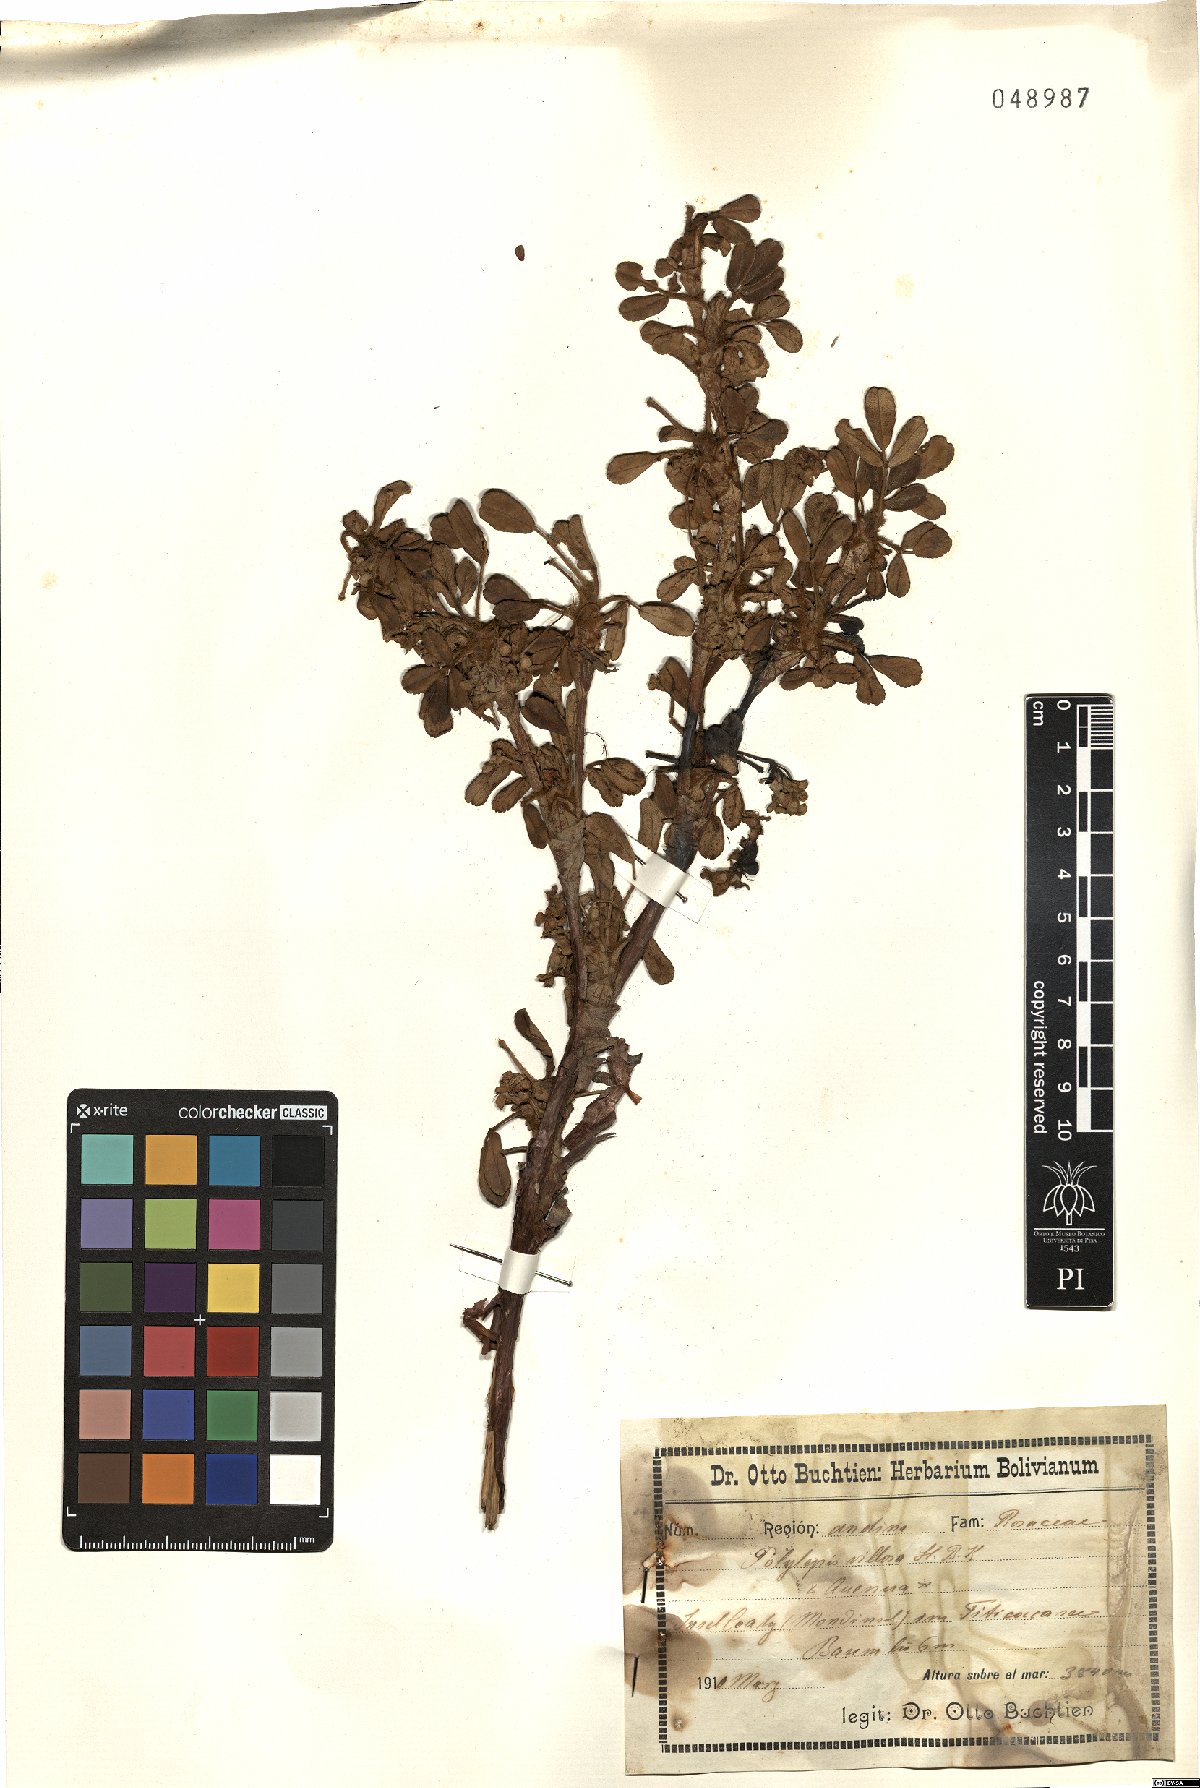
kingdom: Plantae
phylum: Tracheophyta
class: Magnoliopsida
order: Rosales
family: Rosaceae
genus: Polylepis
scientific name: Polylepis racemosa
